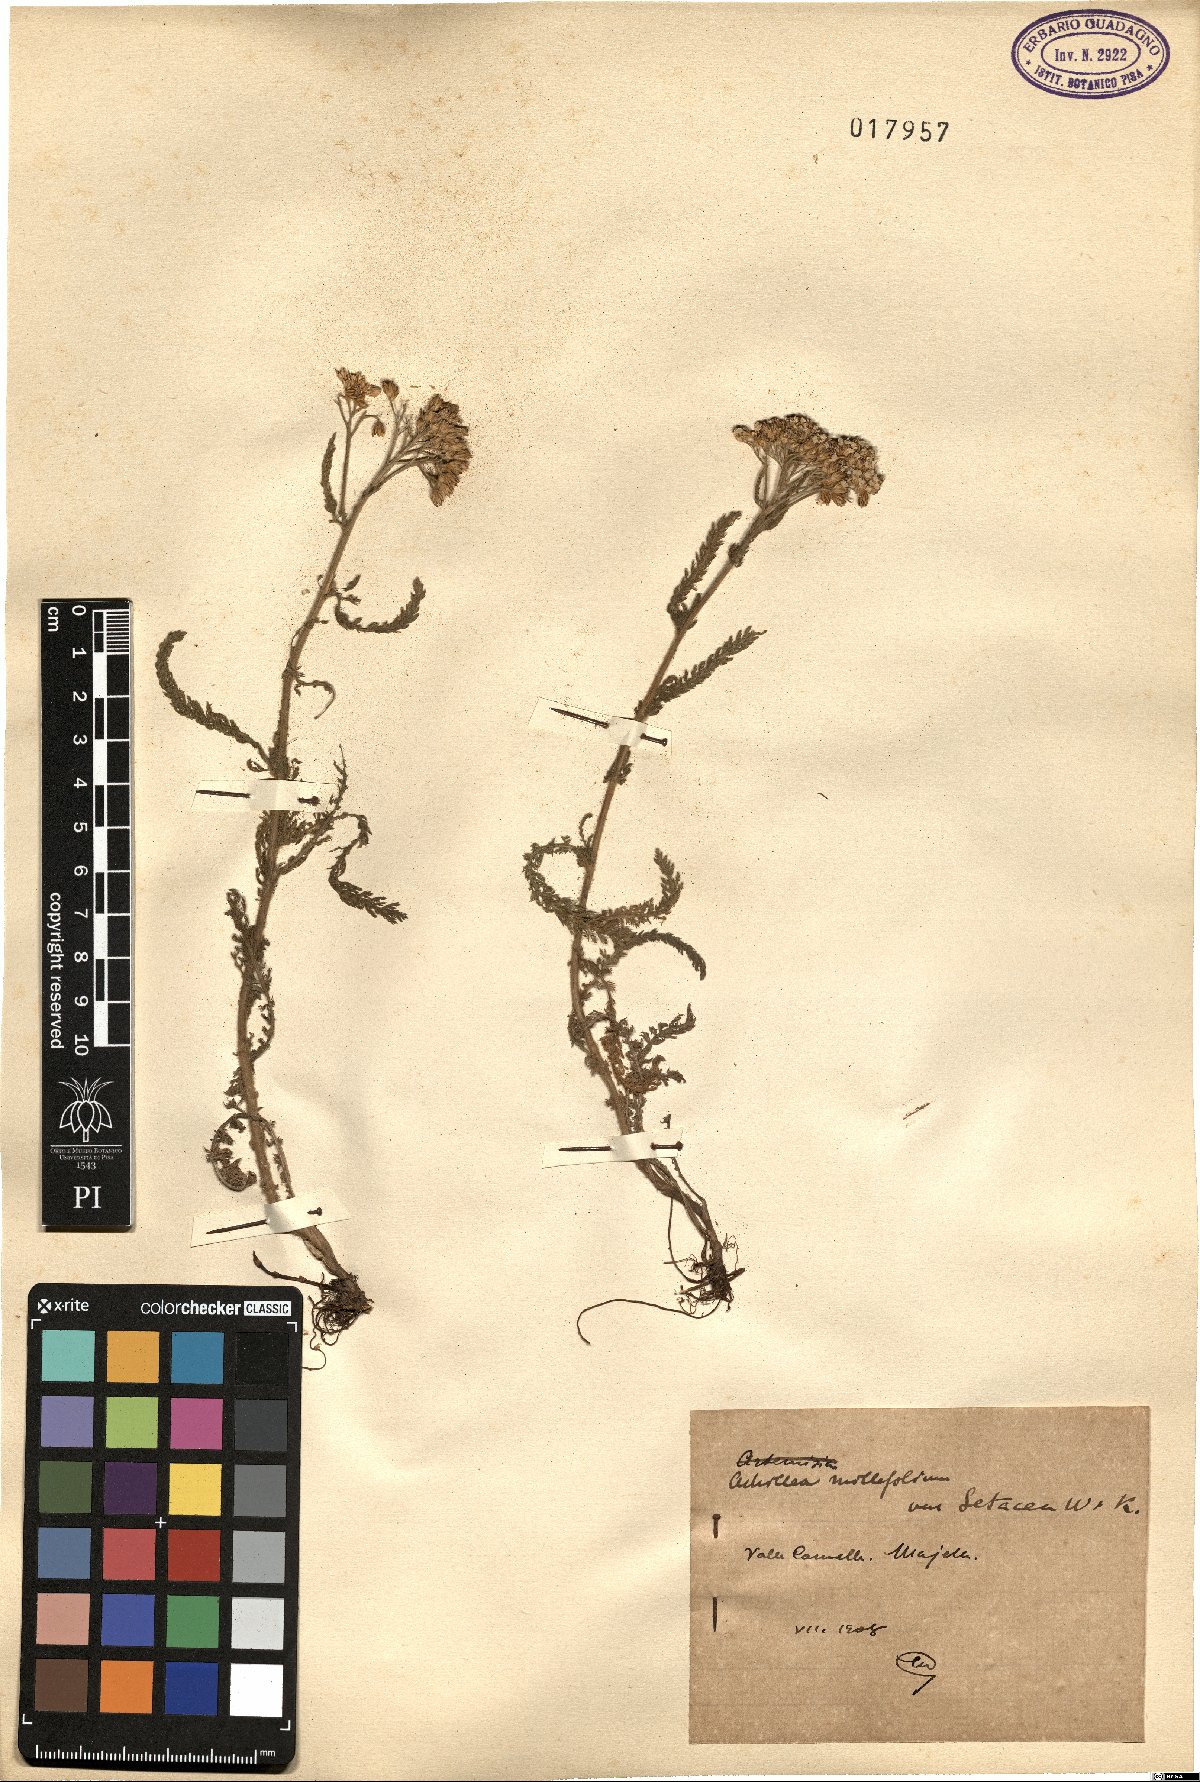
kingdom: Plantae
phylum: Tracheophyta
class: Magnoliopsida
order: Asterales
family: Asteraceae
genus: Achillea
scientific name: Achillea setacea
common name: Bristly yarrow
